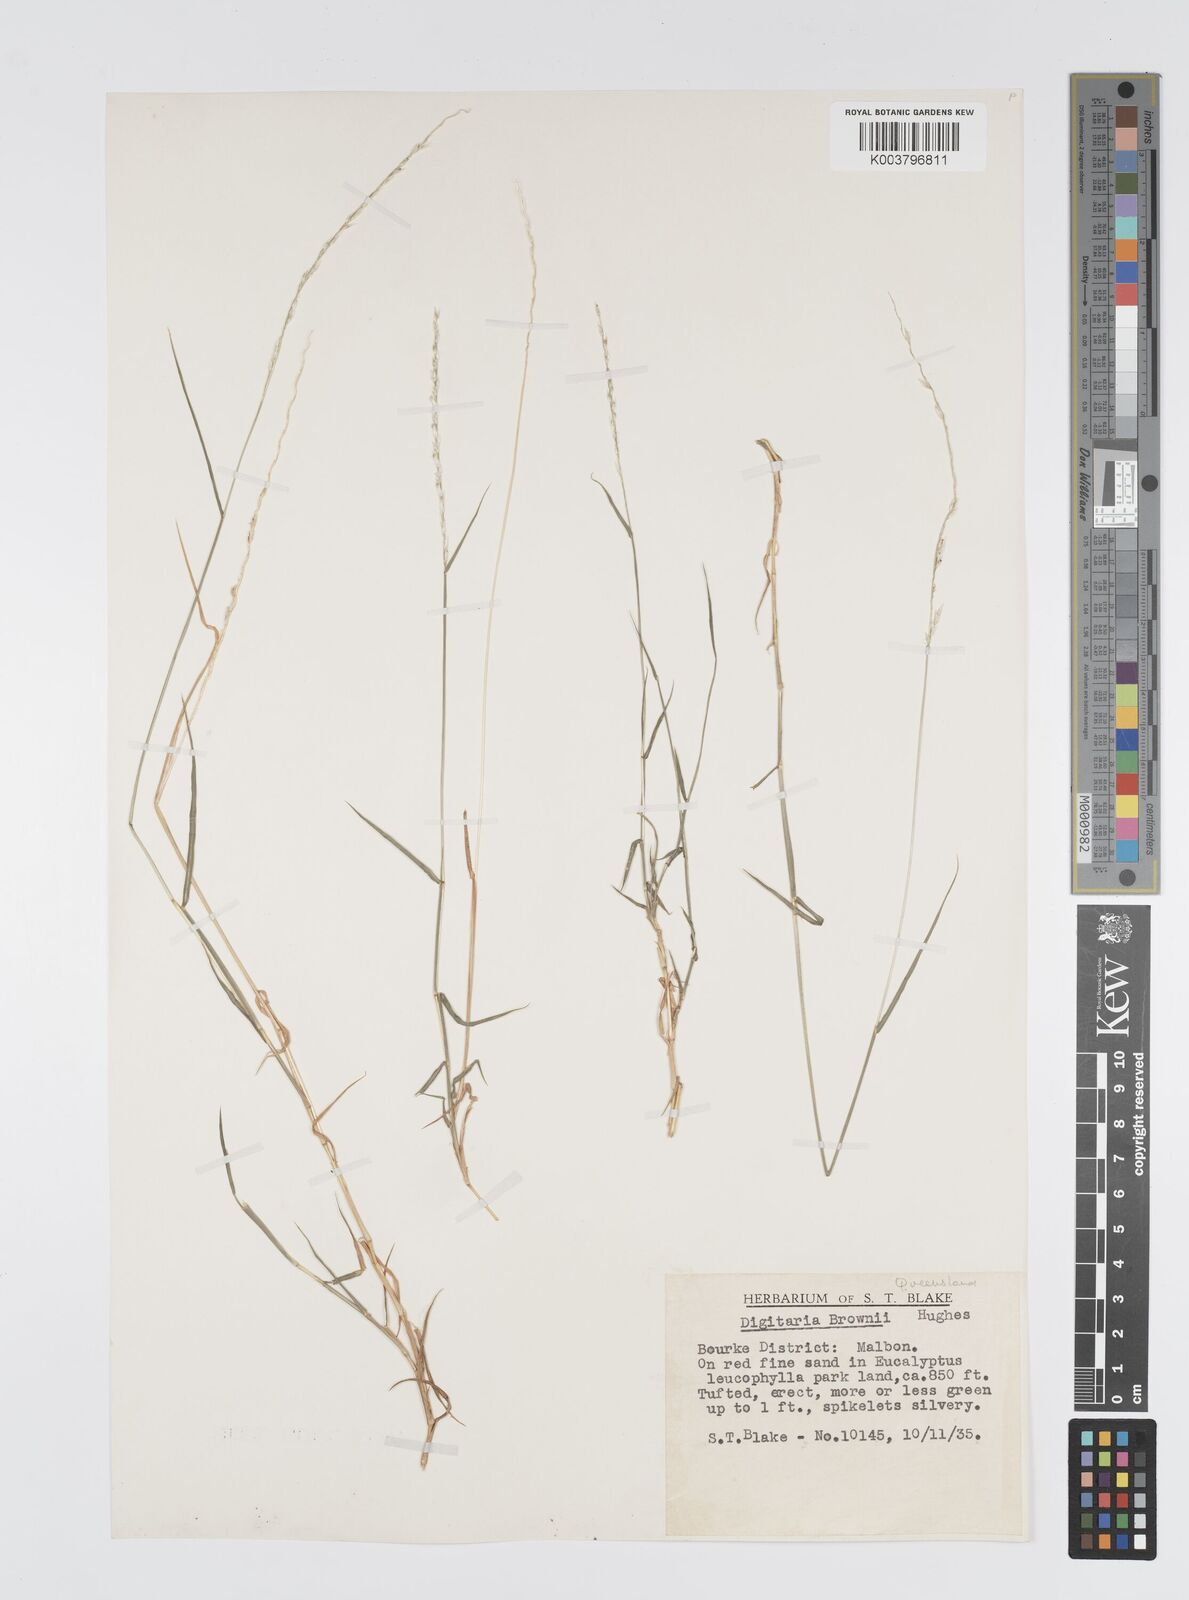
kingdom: Plantae
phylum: Tracheophyta
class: Liliopsida
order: Poales
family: Poaceae
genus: Digitaria
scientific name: Digitaria brownii
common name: Cotton grass
